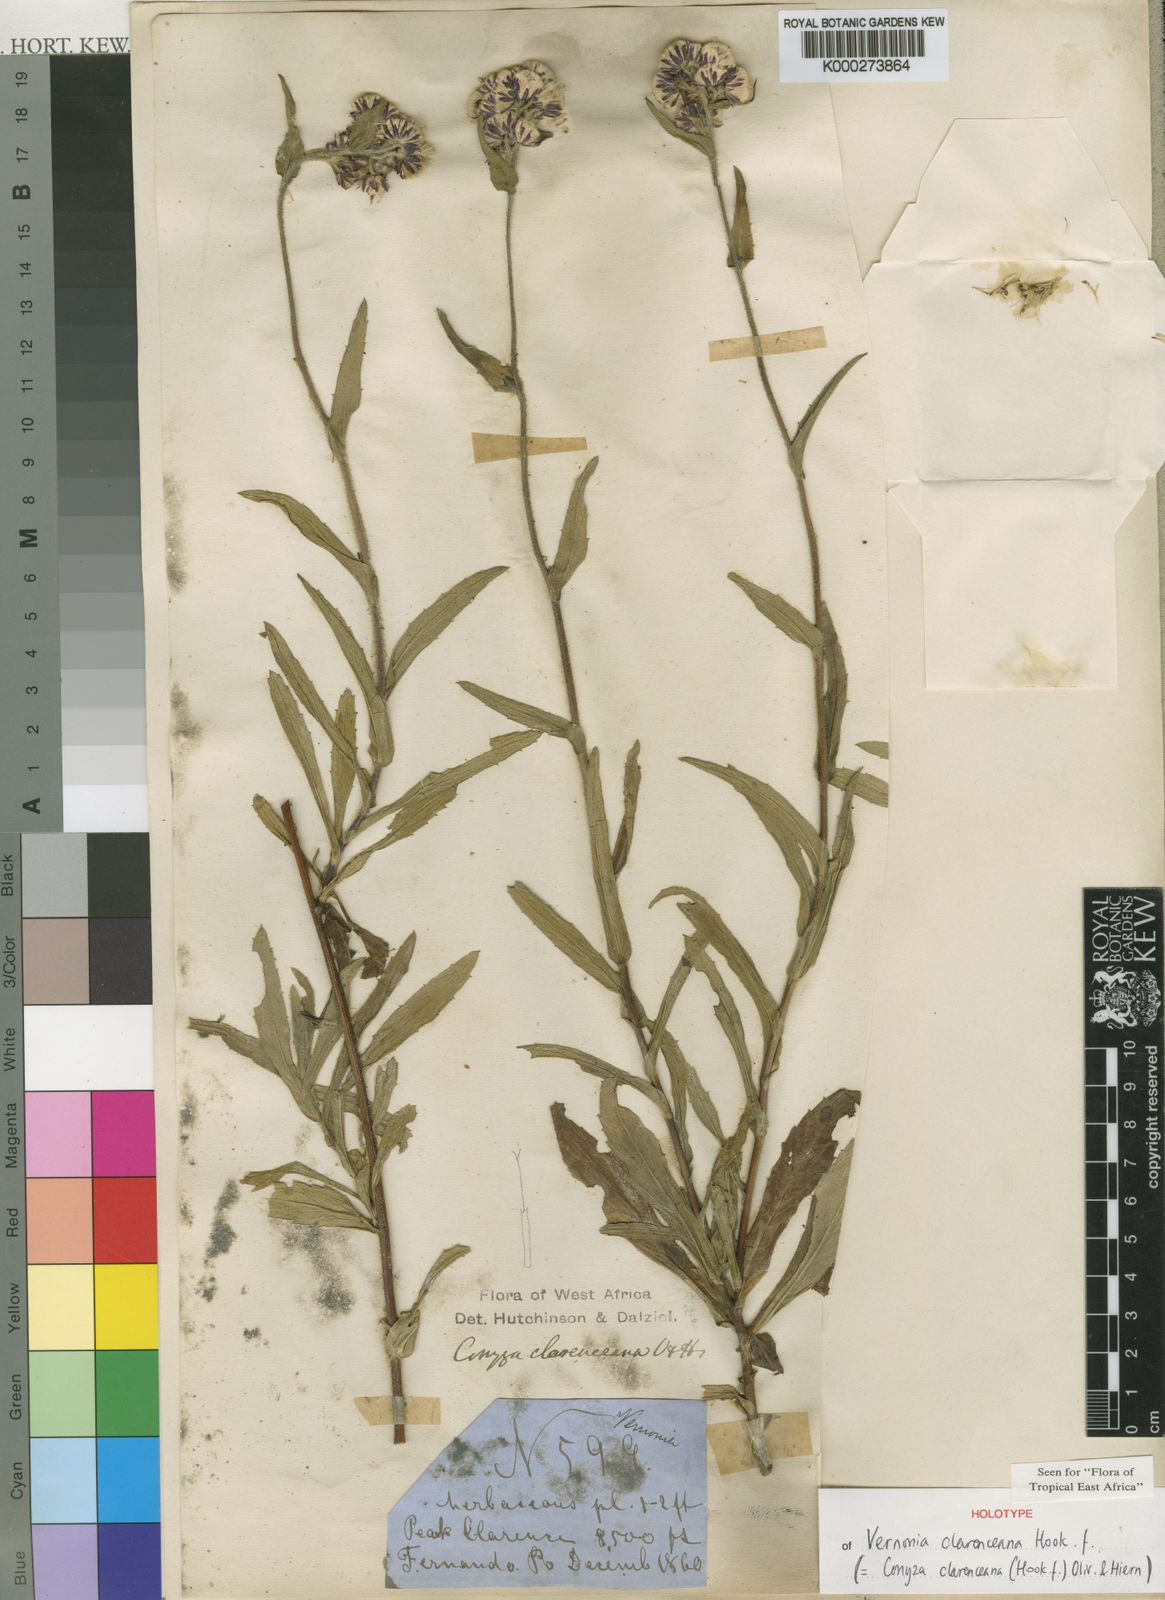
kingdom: Plantae
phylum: Tracheophyta
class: Magnoliopsida
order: Asterales
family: Asteraceae
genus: Conyza
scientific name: Conyza baumii
